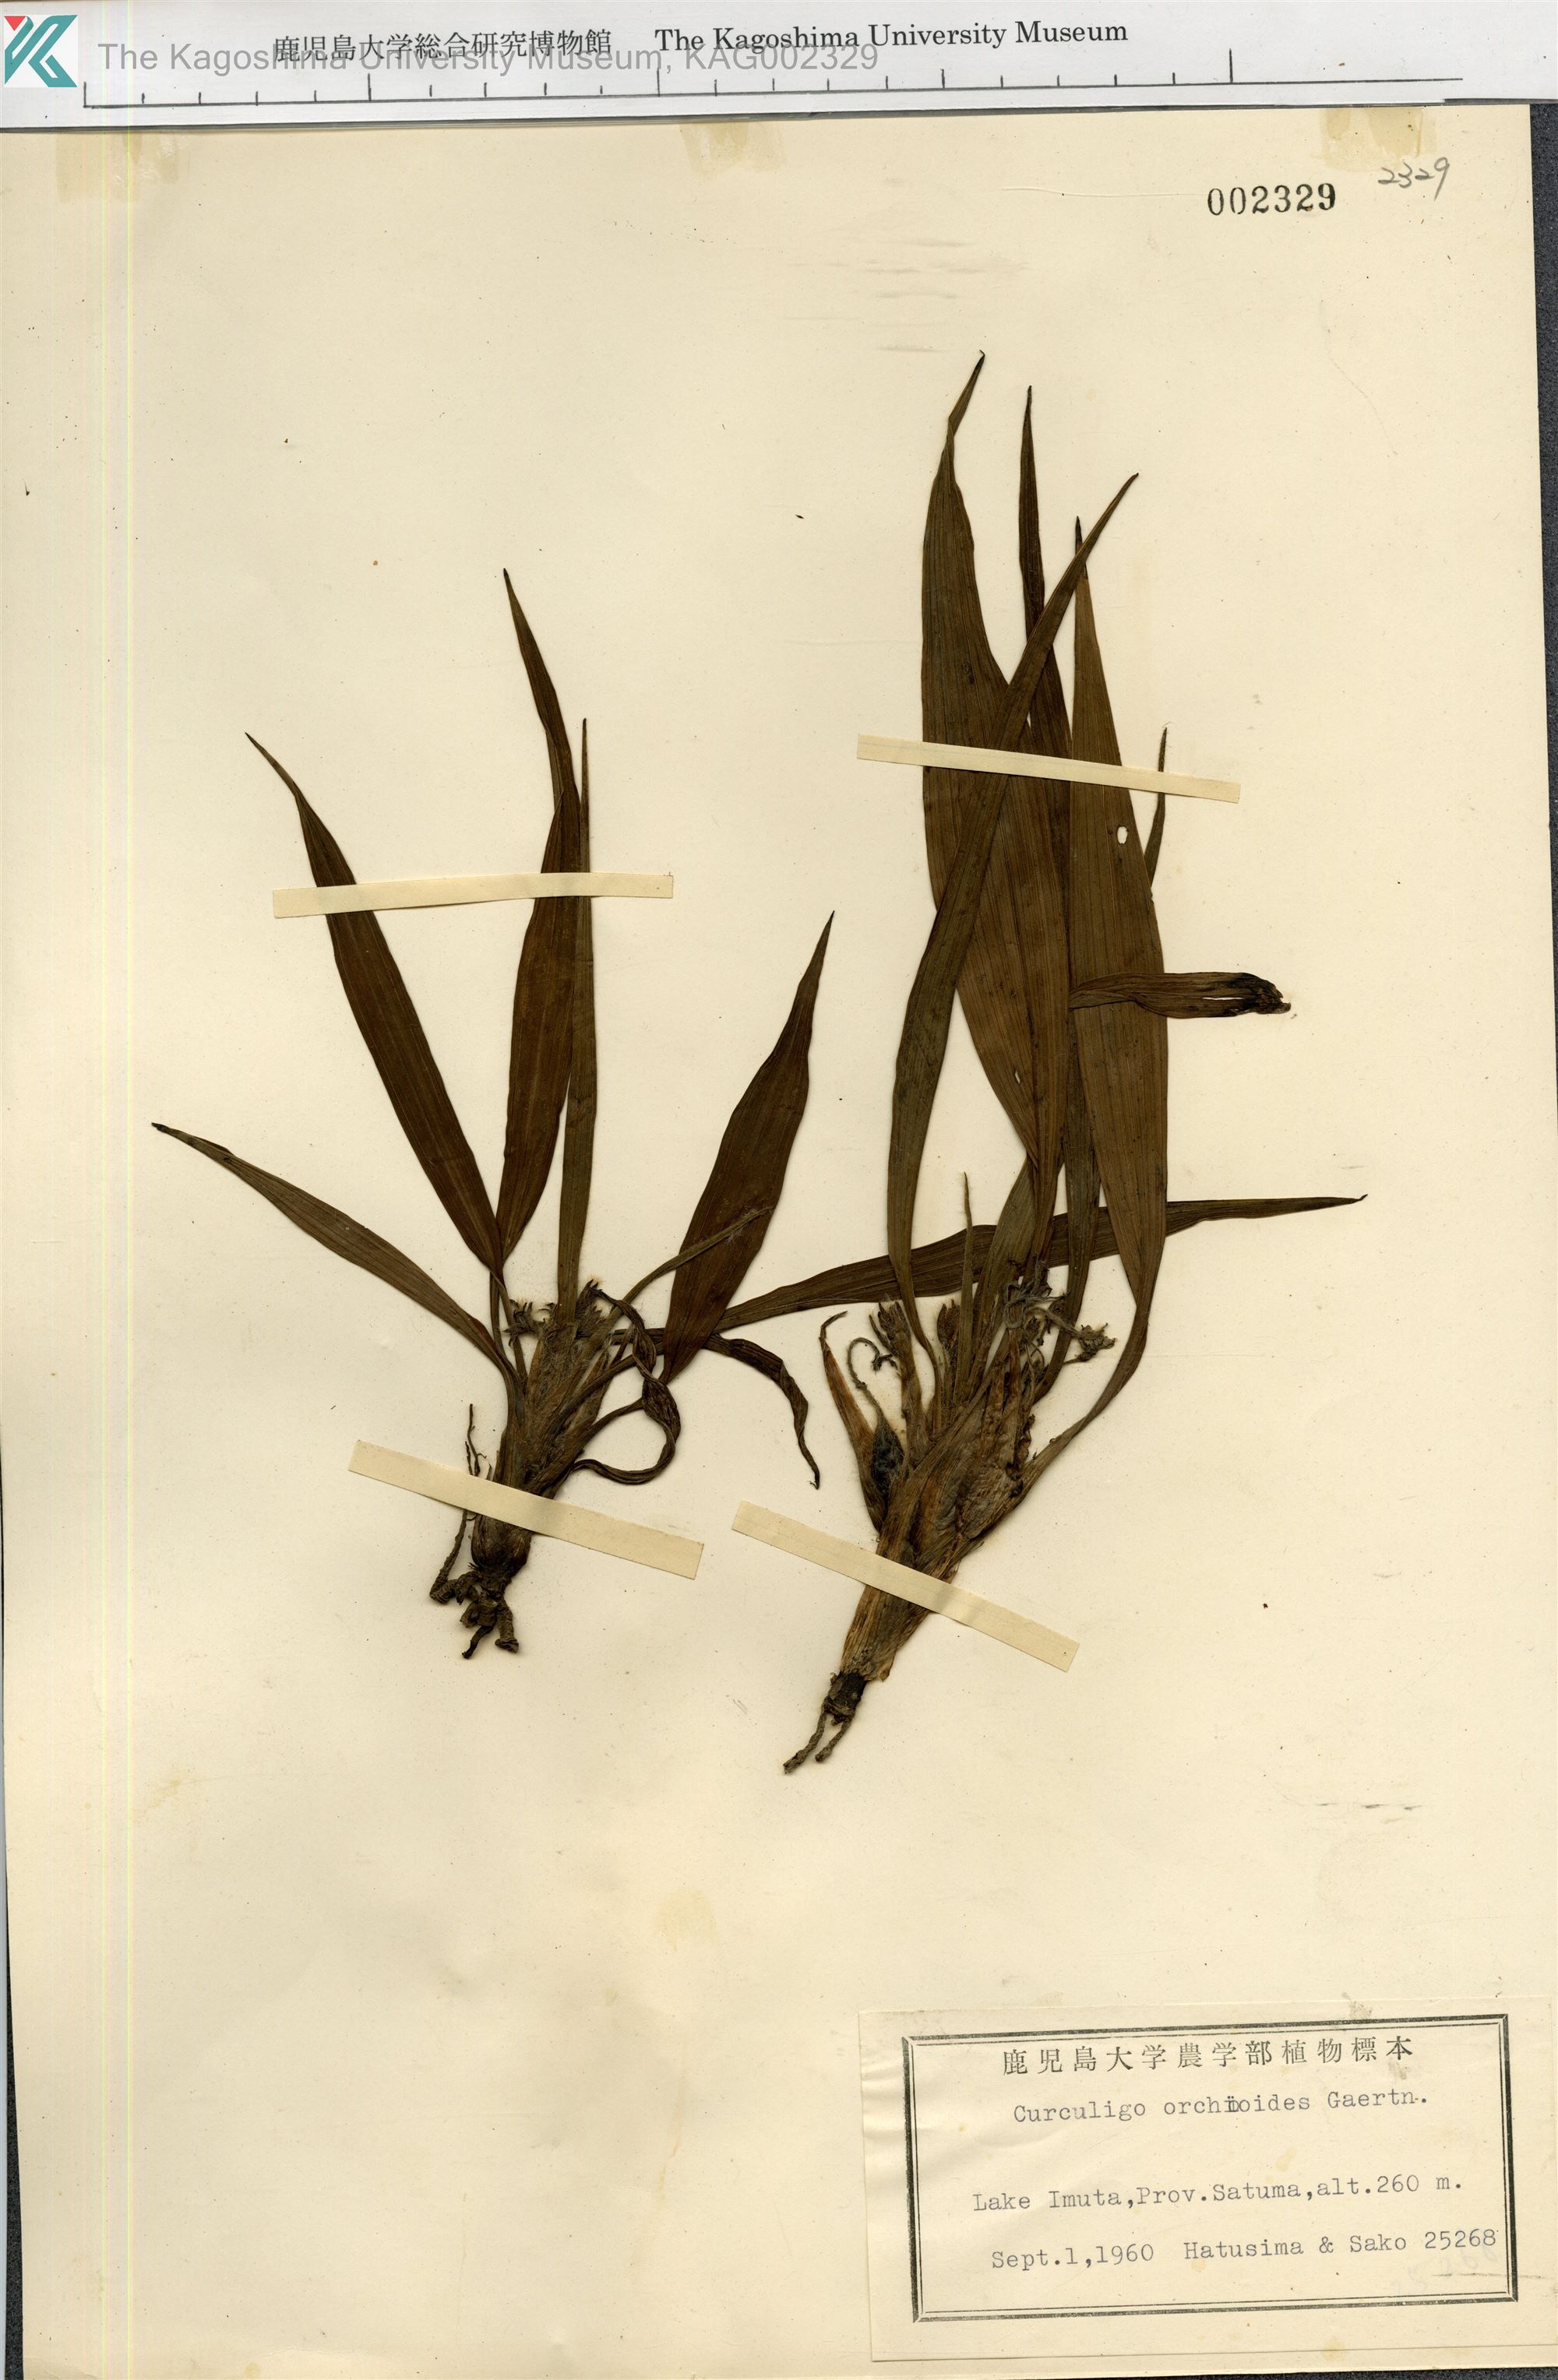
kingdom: Plantae
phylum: Tracheophyta
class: Liliopsida
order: Asparagales
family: Hypoxidaceae
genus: Curculigo
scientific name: Curculigo orchioides
